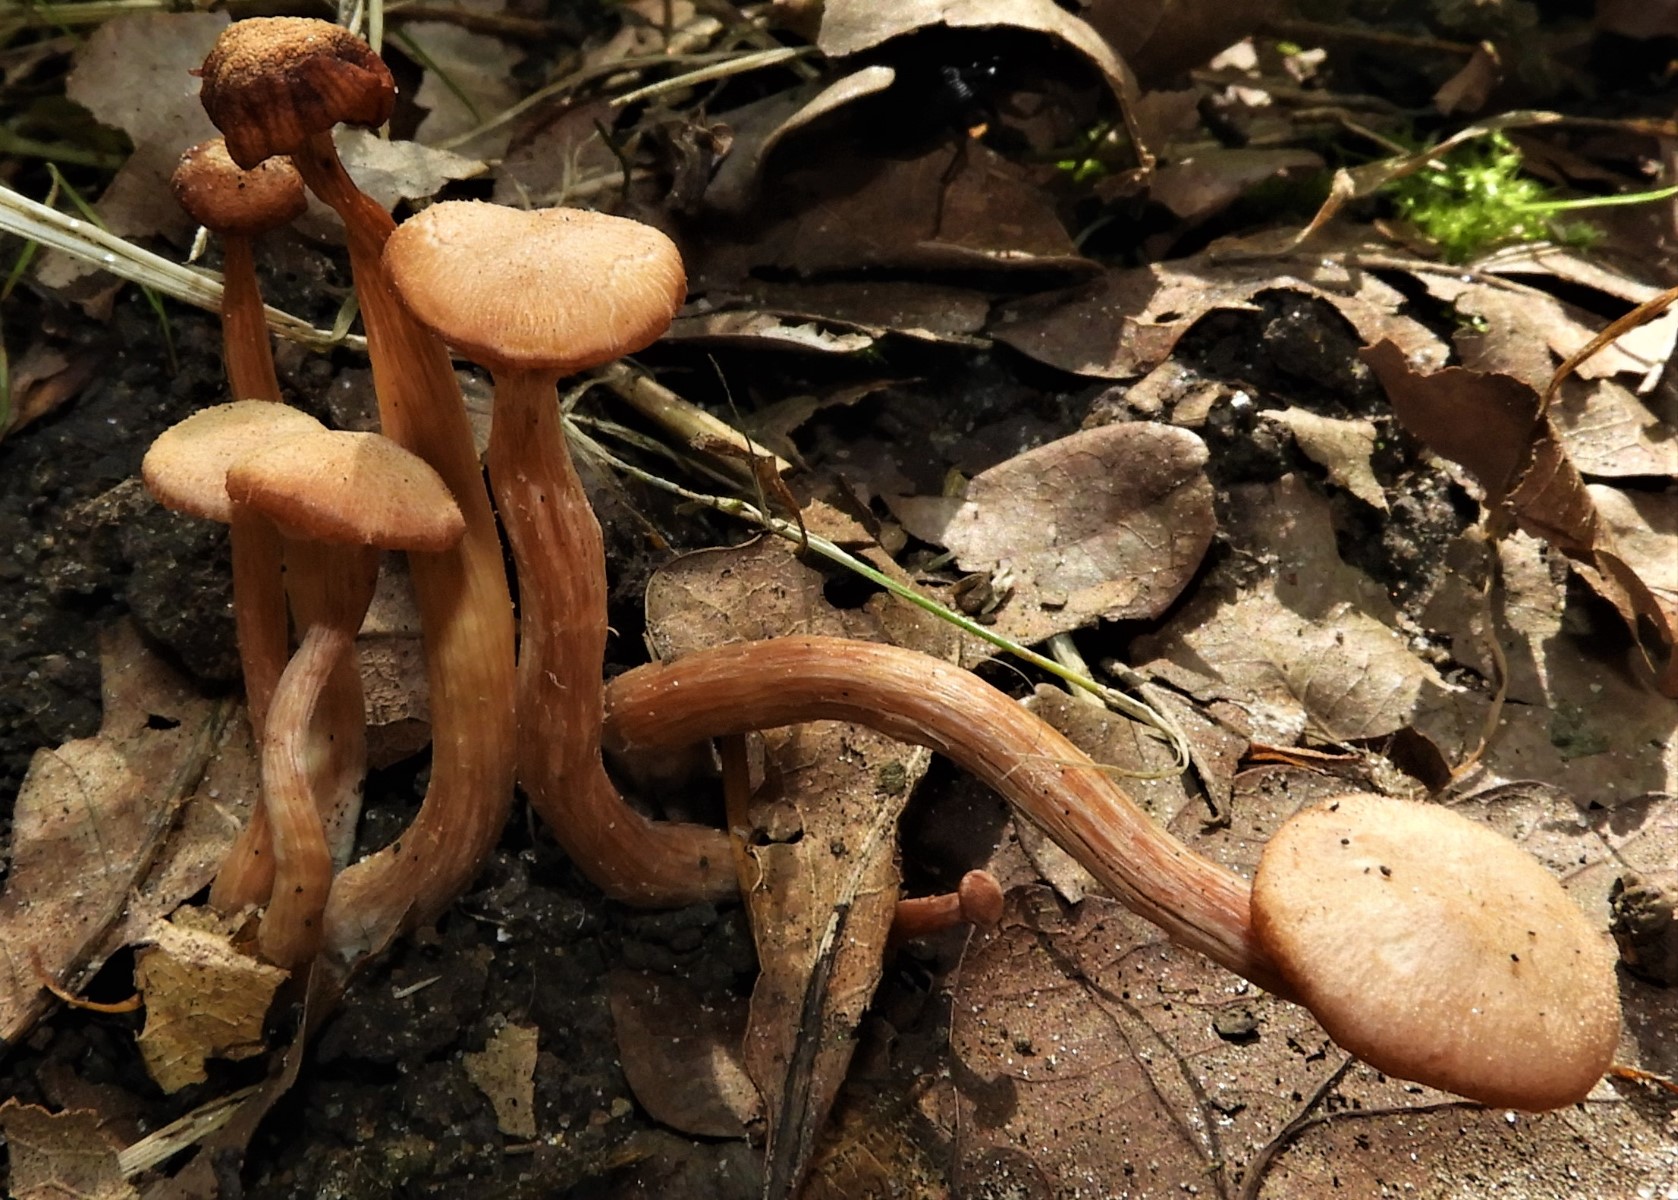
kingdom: Fungi
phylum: Basidiomycota
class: Agaricomycetes
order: Agaricales
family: Hydnangiaceae
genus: Laccaria
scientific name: Laccaria laccata
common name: rød ametysthat
